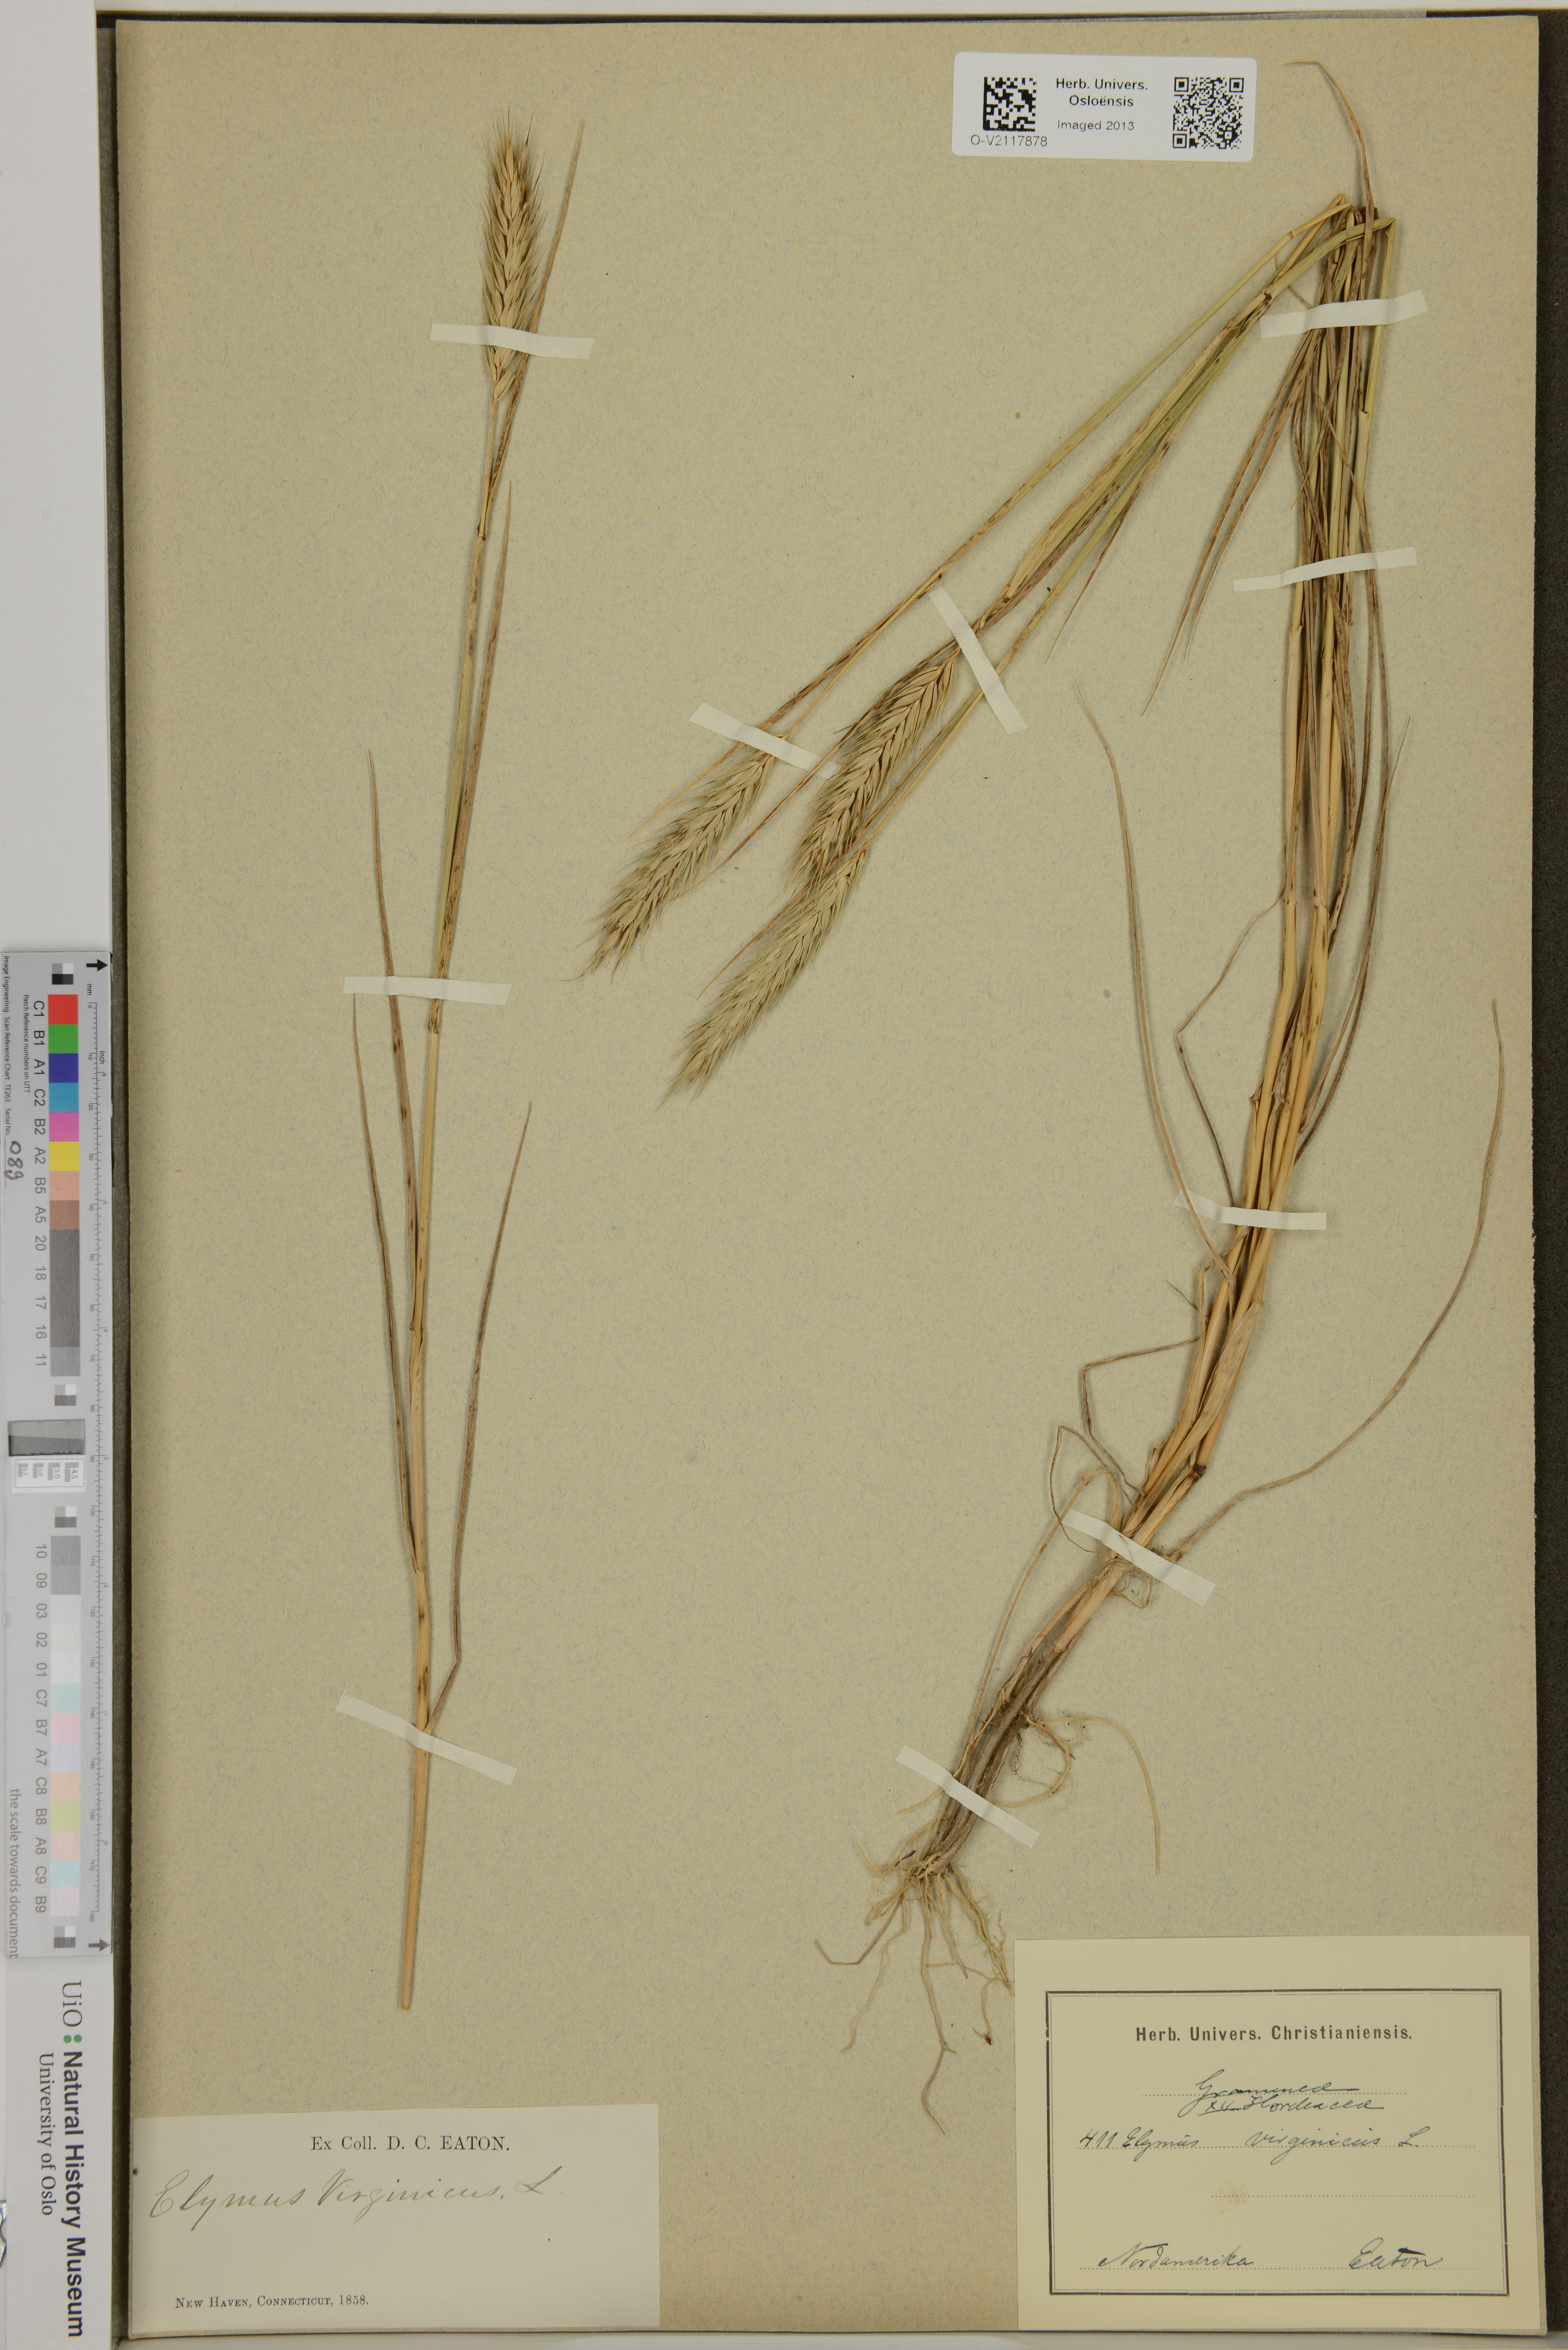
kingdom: Plantae
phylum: Tracheophyta
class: Liliopsida
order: Poales
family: Poaceae
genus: Elymus
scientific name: Elymus virginicus
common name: Common eastern wildrye
